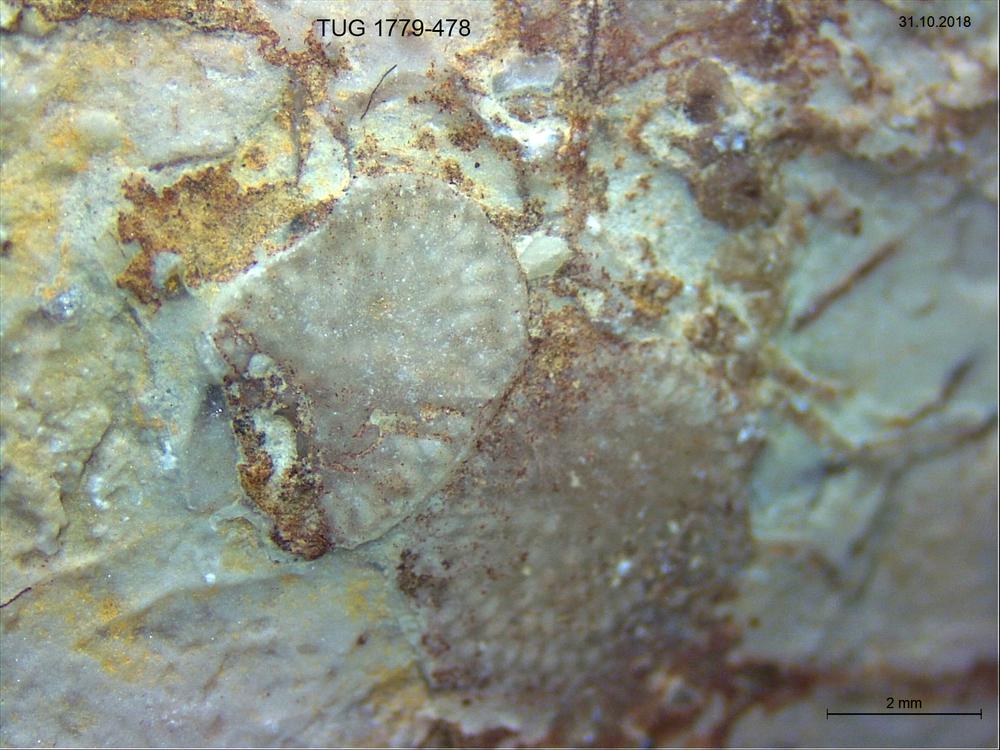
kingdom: Animalia
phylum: Brachiopoda
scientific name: Brachiopoda
